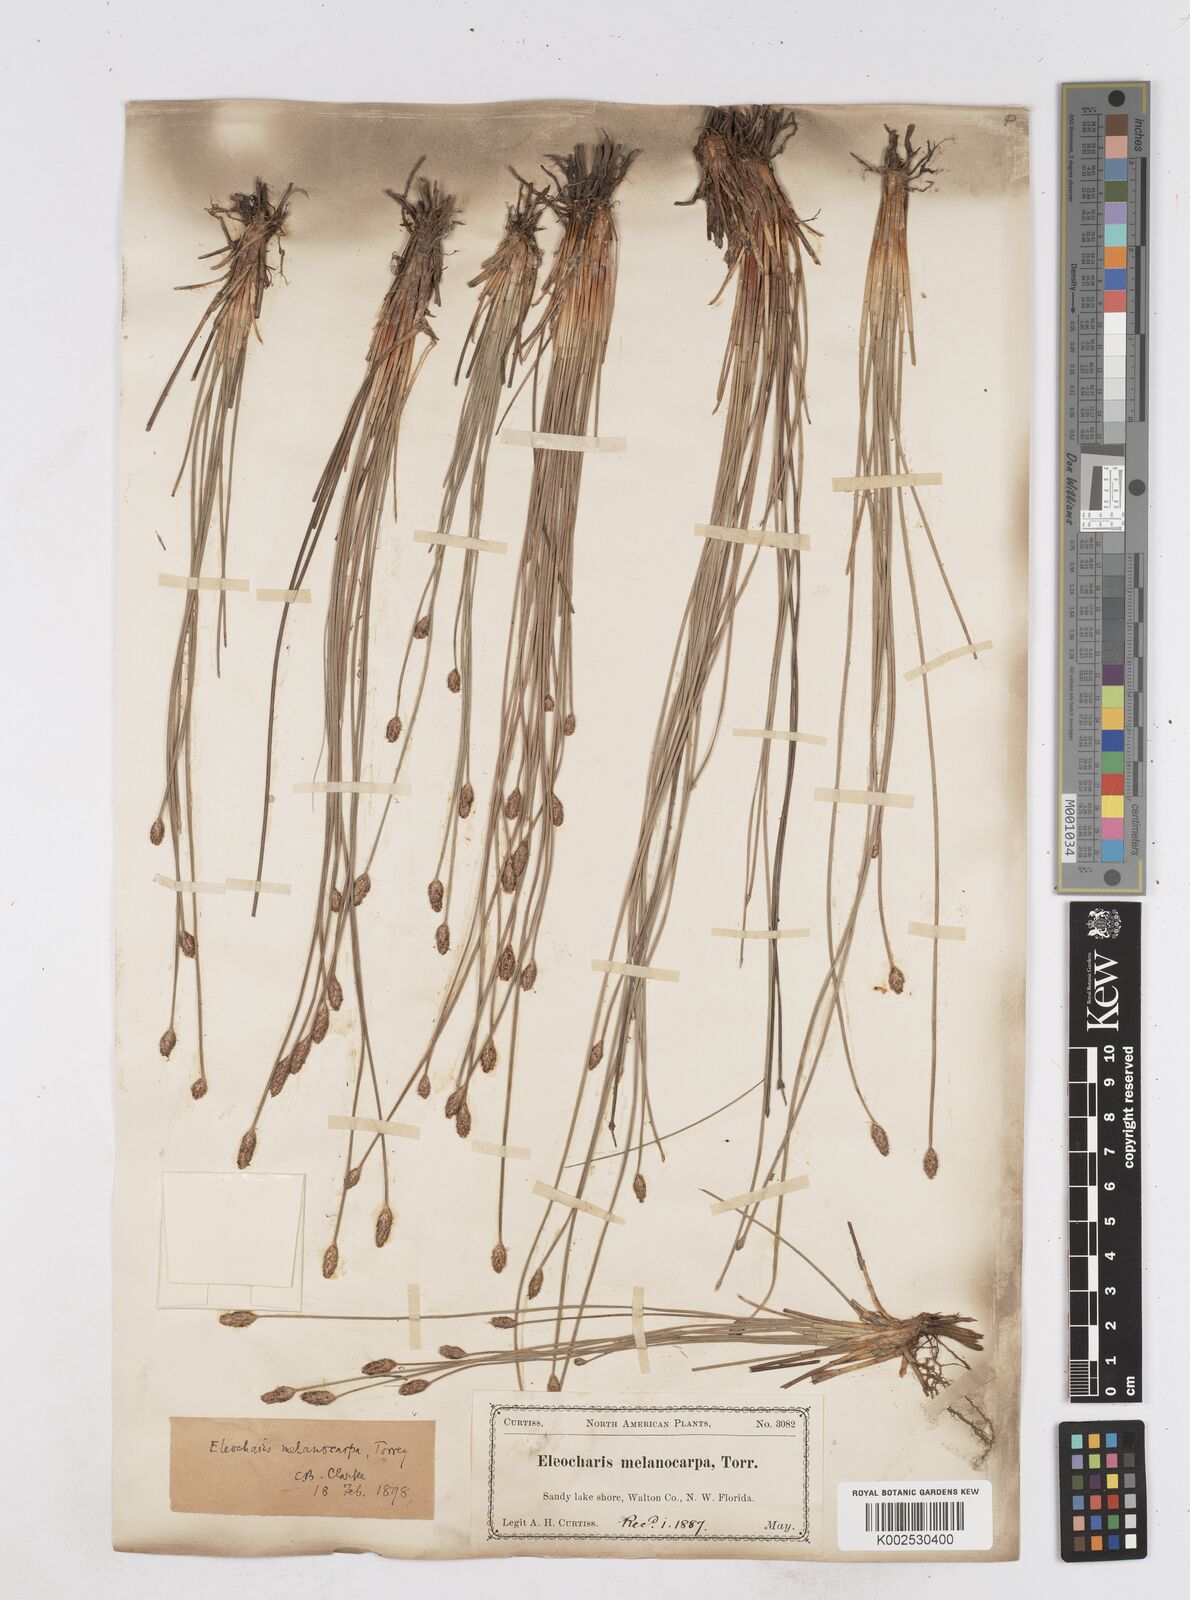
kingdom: Plantae
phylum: Tracheophyta
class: Liliopsida
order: Poales
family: Cyperaceae
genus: Eleocharis
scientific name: Eleocharis melanocarpa
